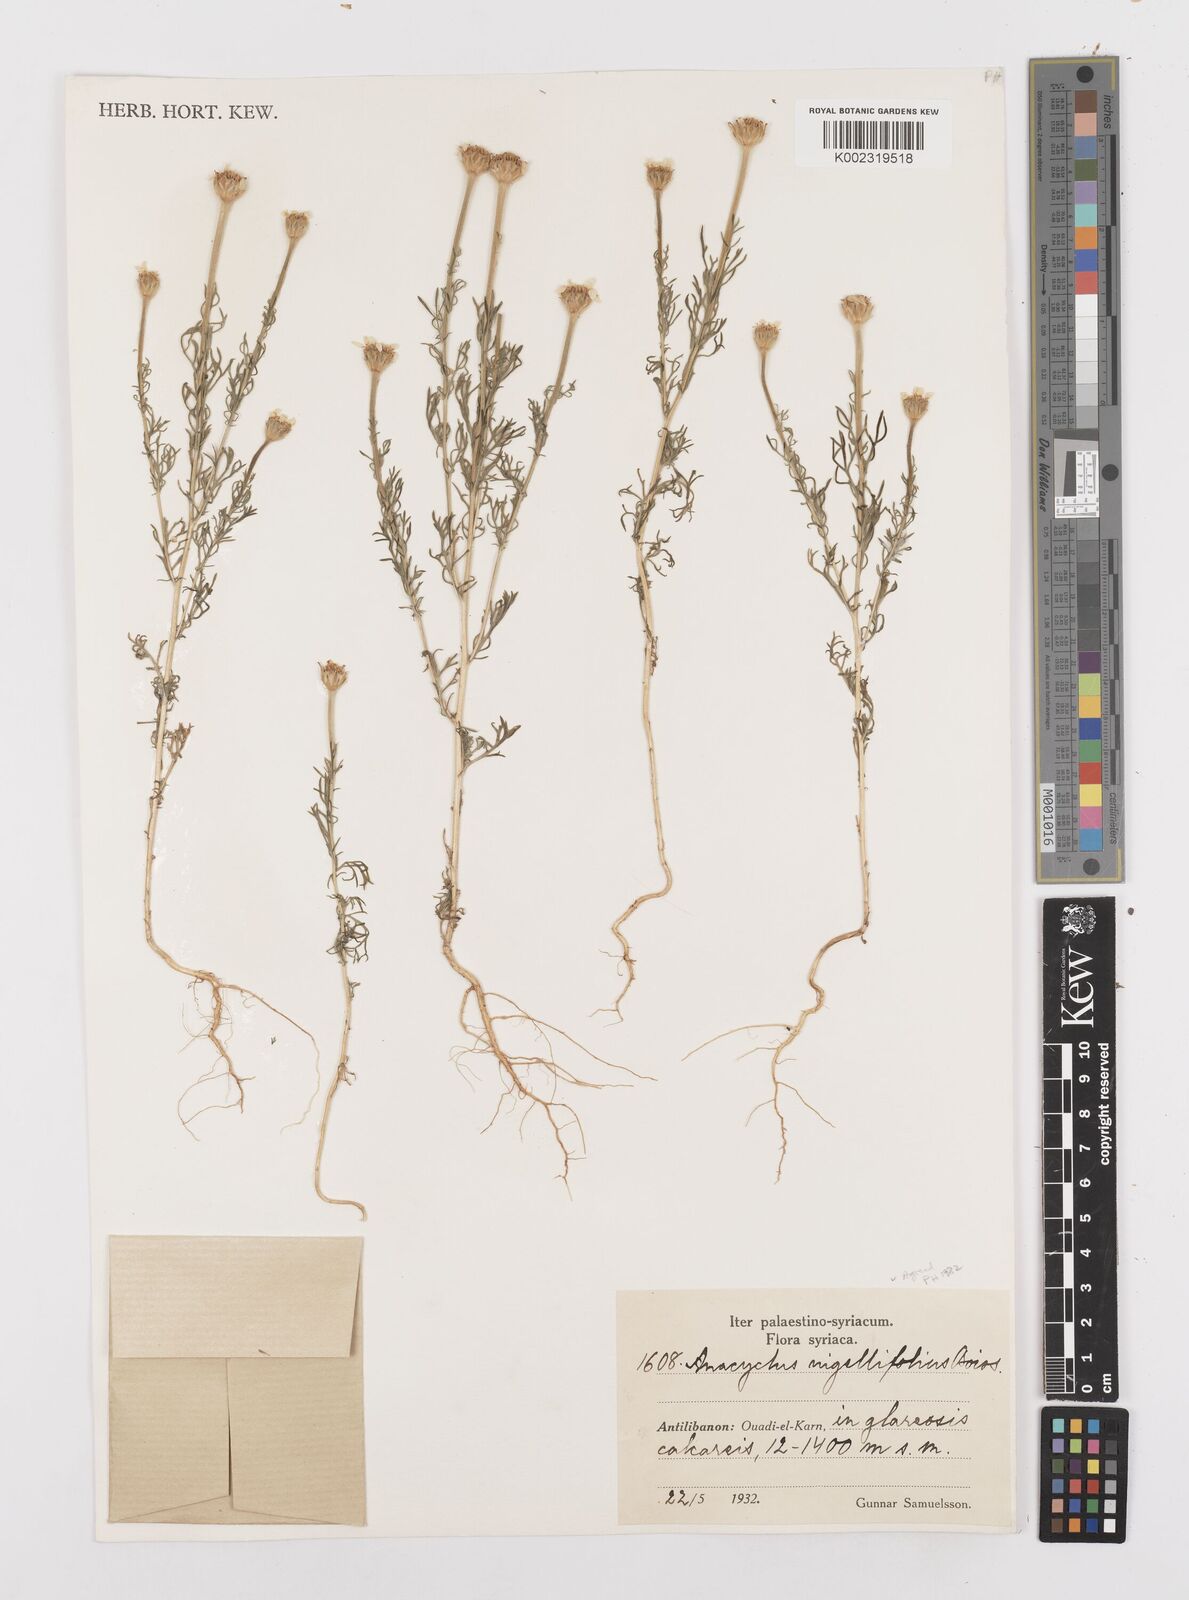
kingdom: Plantae
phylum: Tracheophyta
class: Magnoliopsida
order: Asterales
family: Asteraceae
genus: Cota
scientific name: Cota nigellifolia
